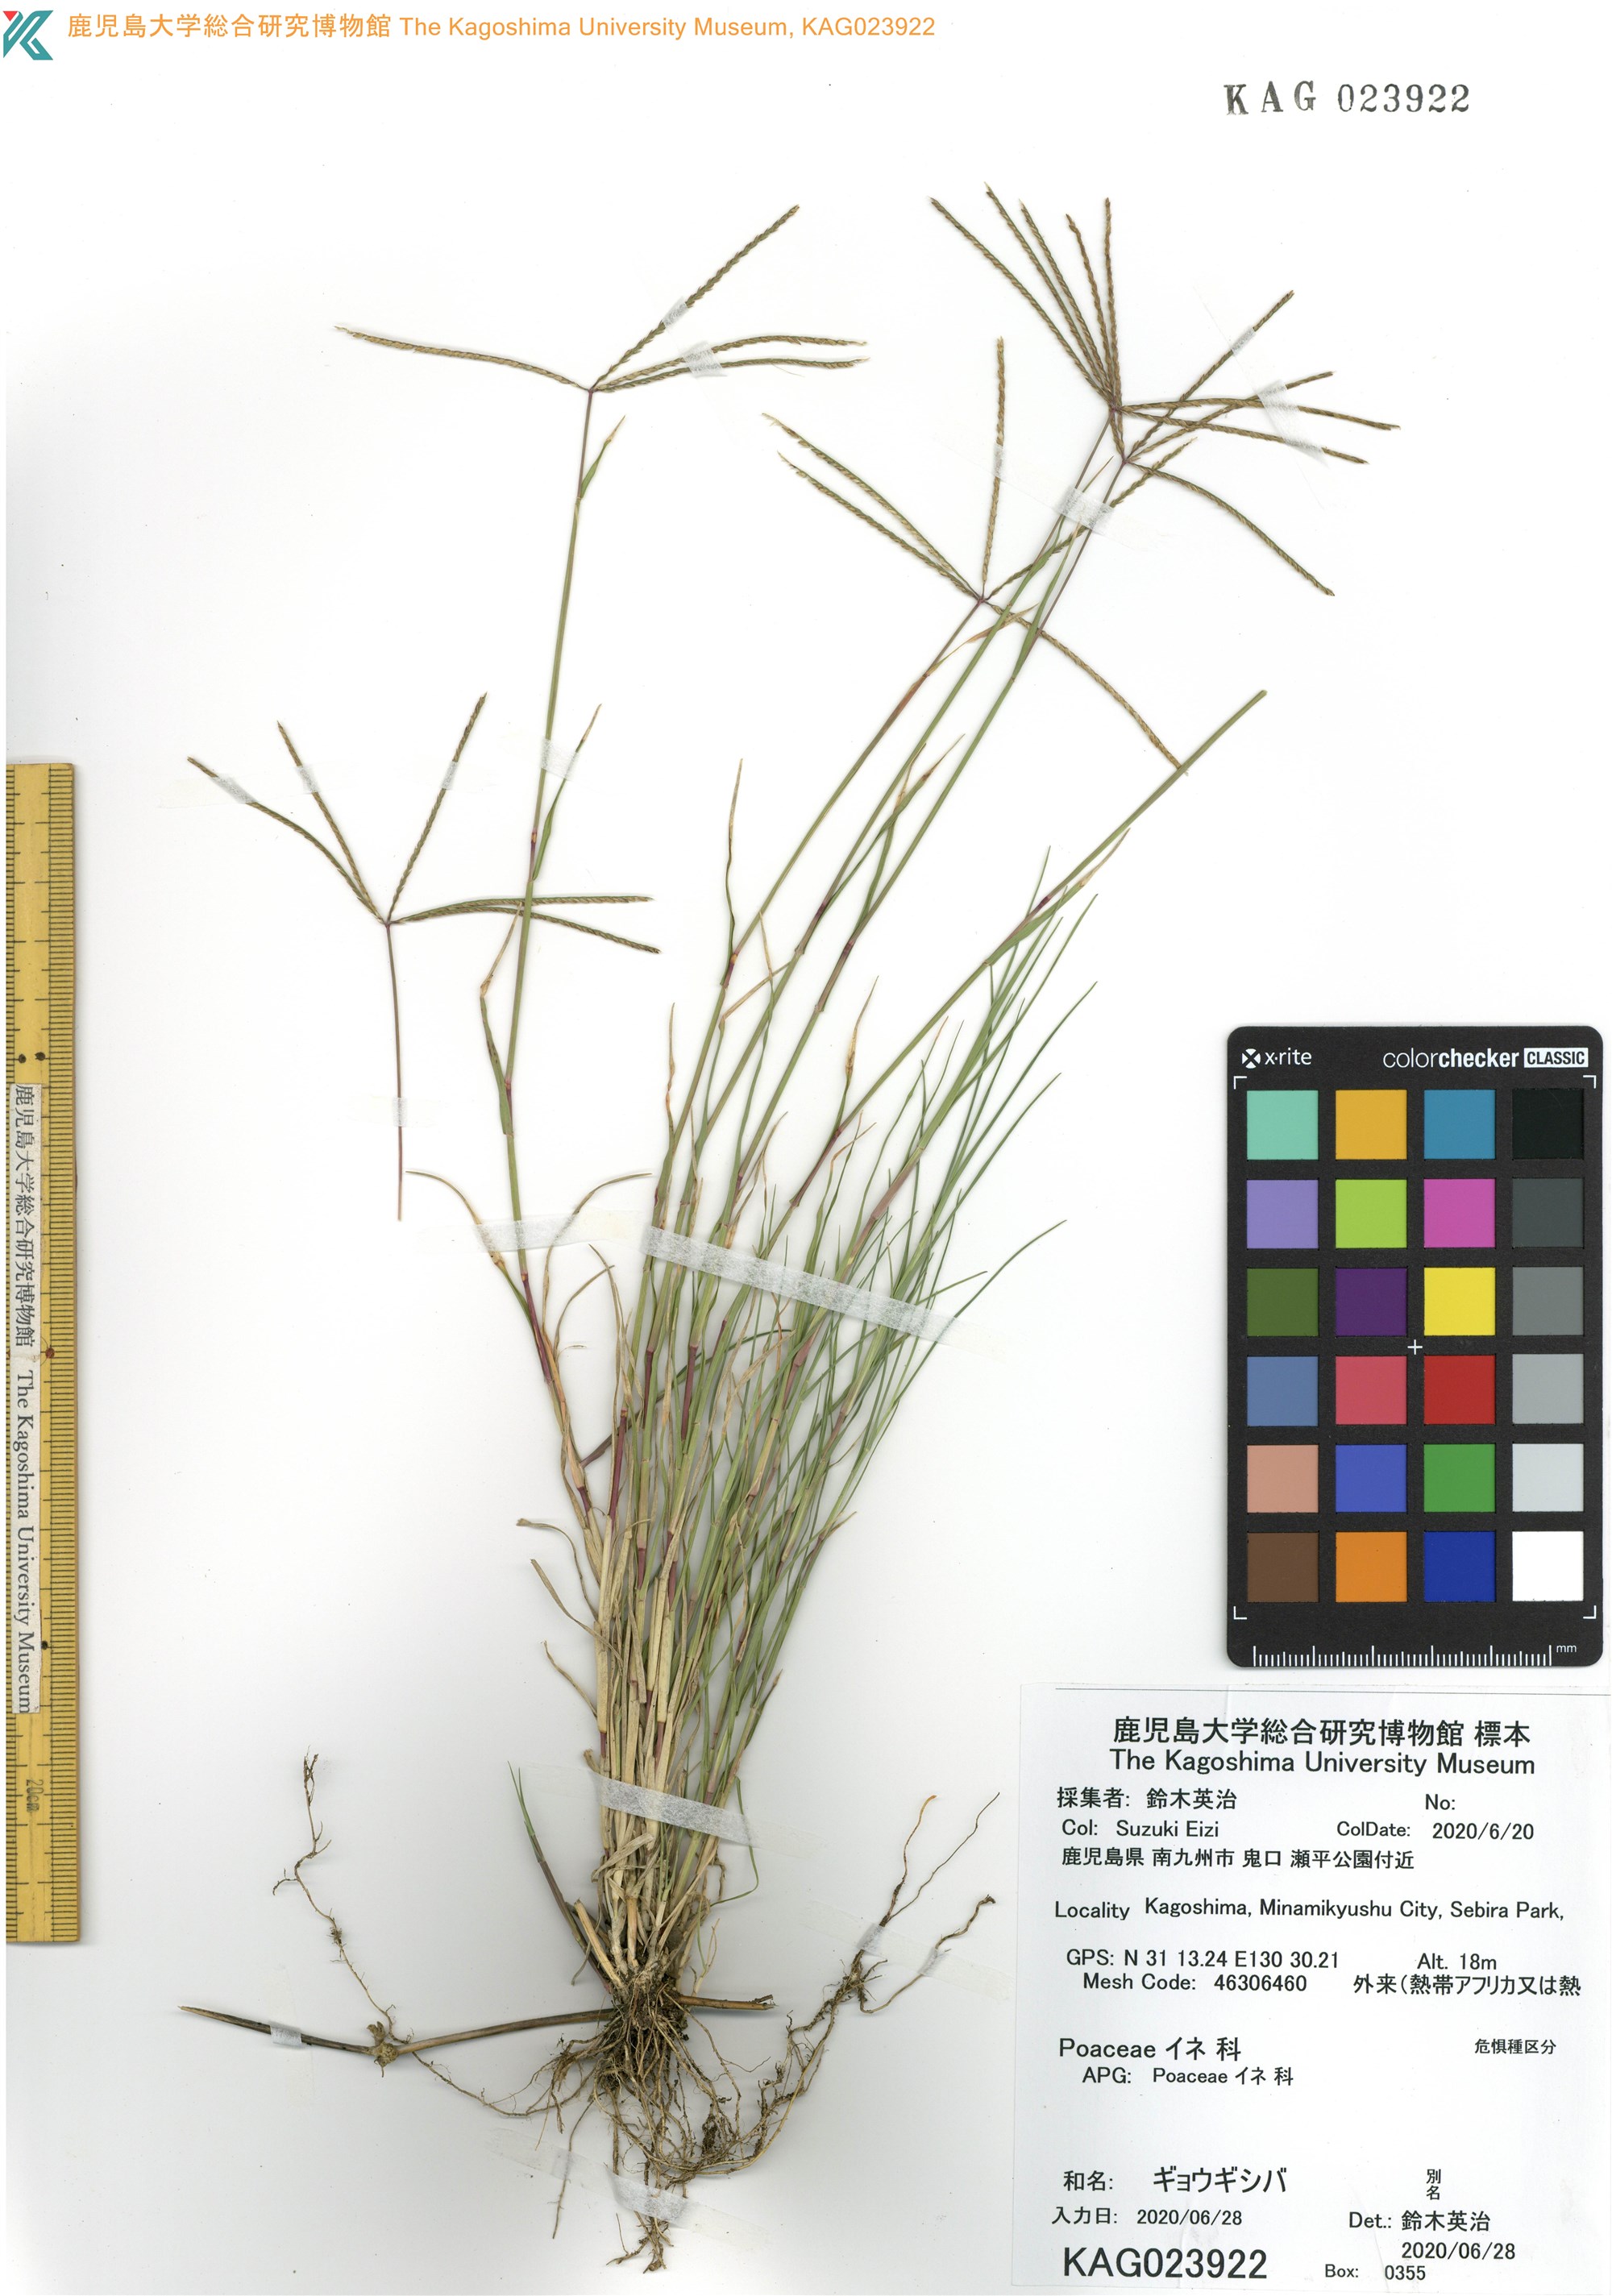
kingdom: Plantae
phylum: Tracheophyta
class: Liliopsida
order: Poales
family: Poaceae
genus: Cynodon
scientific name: Cynodon dactylon
